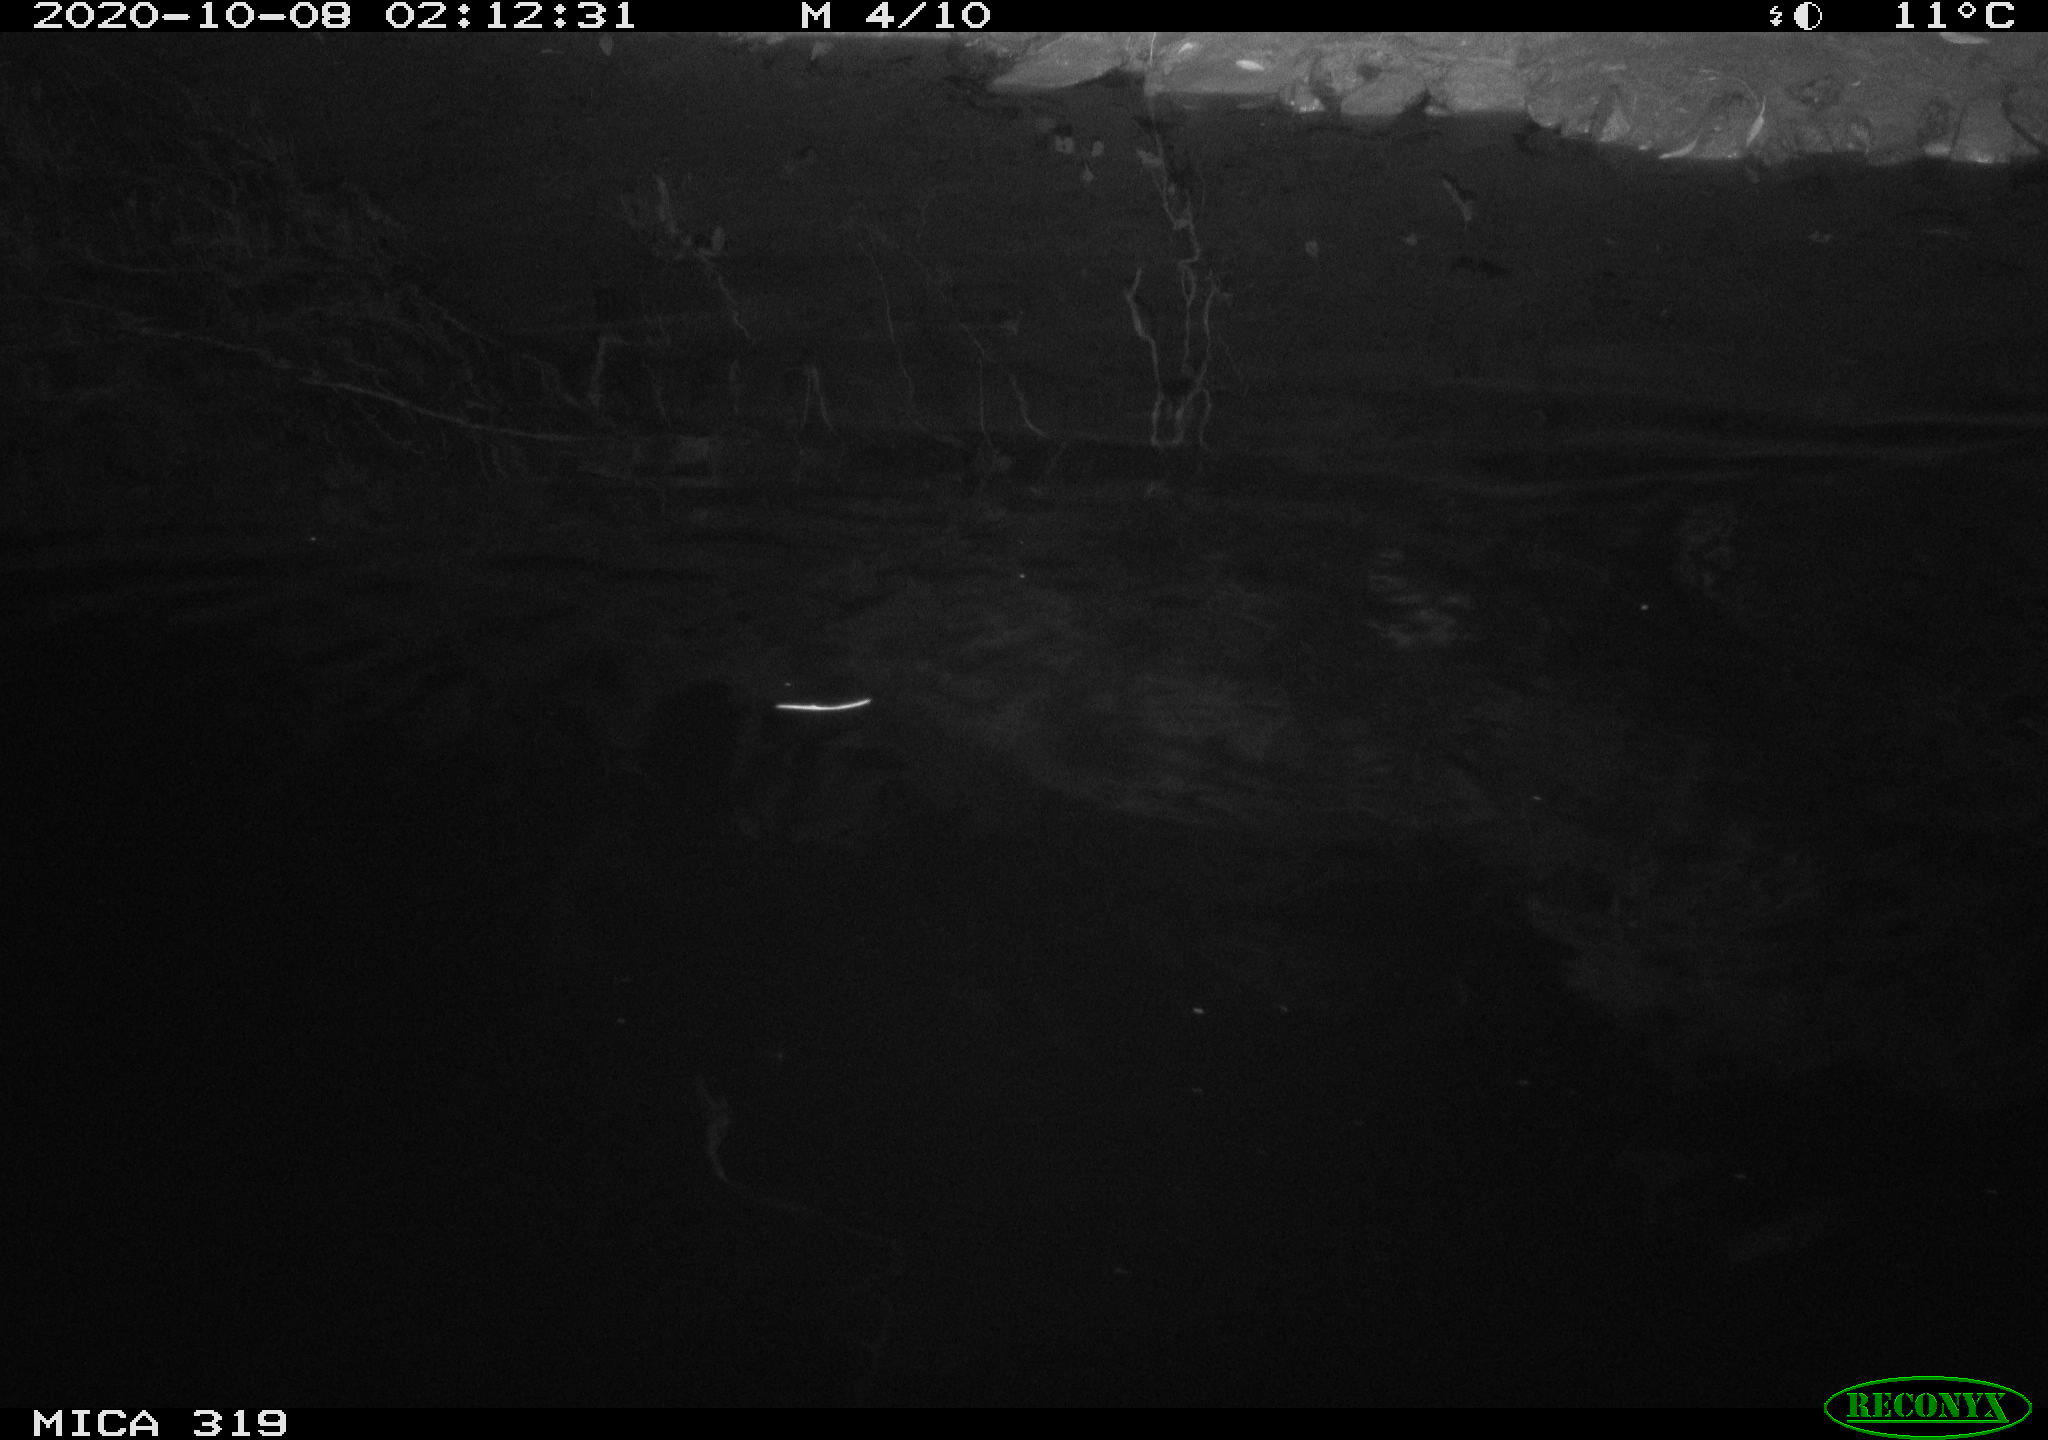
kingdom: Animalia
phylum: Chordata
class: Mammalia
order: Rodentia
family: Muridae
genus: Rattus
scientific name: Rattus norvegicus
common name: Brown rat
